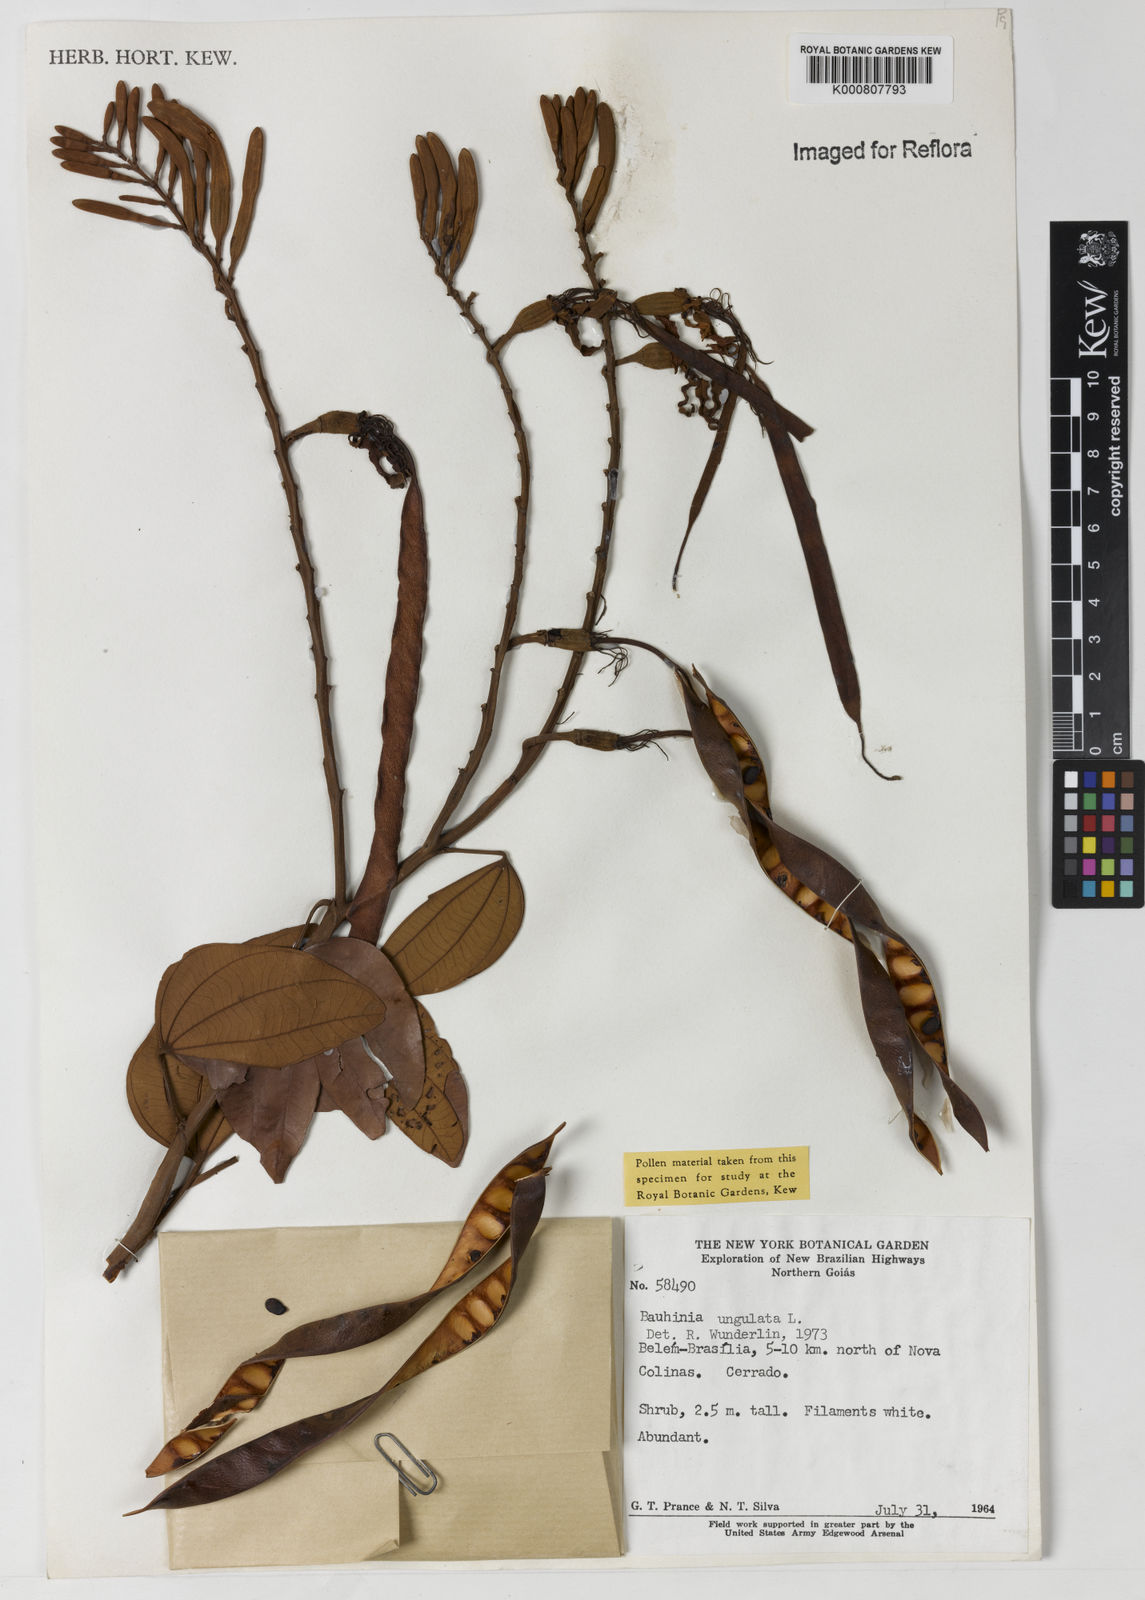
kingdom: Plantae
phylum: Tracheophyta
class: Magnoliopsida
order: Fabales
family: Fabaceae
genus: Bauhinia
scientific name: Bauhinia ungulata
